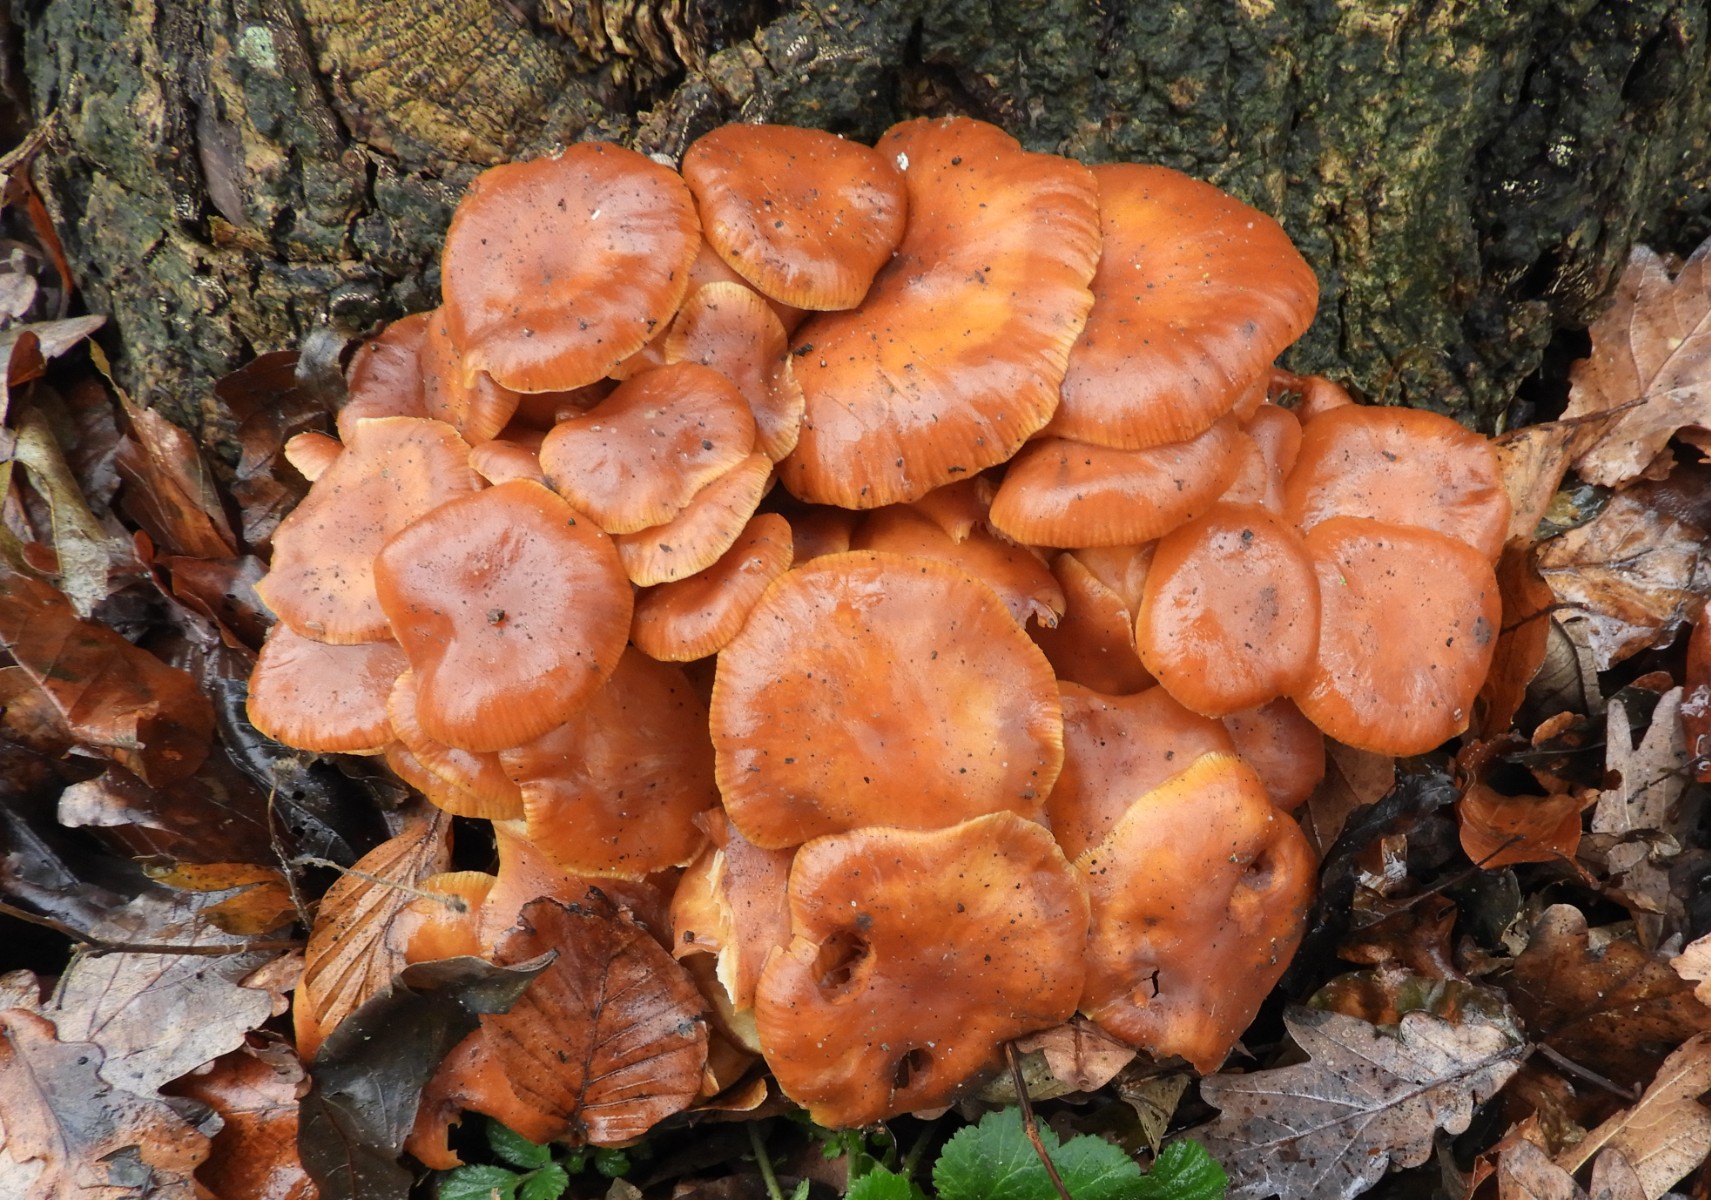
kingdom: Fungi
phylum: Basidiomycota
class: Agaricomycetes
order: Agaricales
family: Physalacriaceae
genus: Flammulina
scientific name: Flammulina velutipes
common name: gul fløjlsfod
